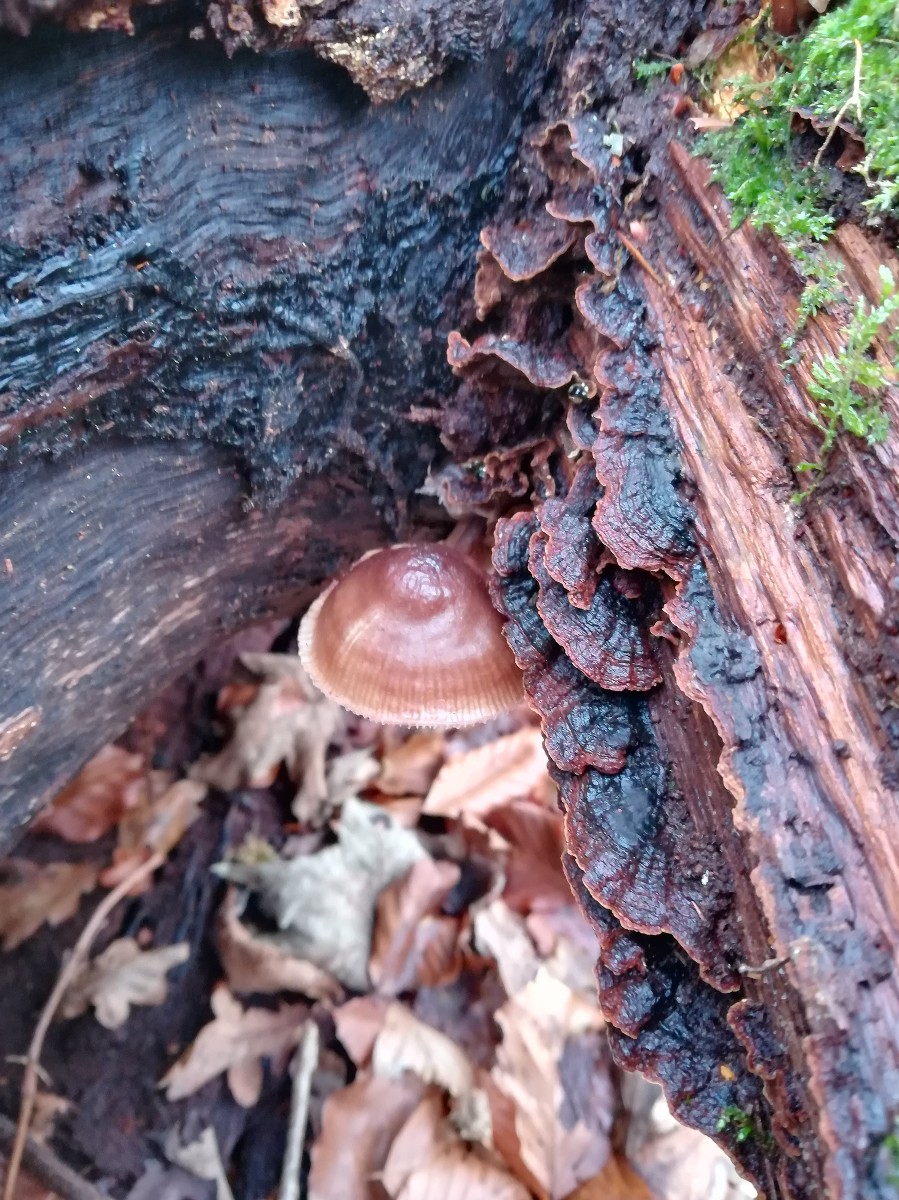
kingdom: Fungi
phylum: Basidiomycota
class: Agaricomycetes
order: Agaricales
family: Mycenaceae
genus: Mycena
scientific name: Mycena maculata
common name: rødplettet huesvamp
